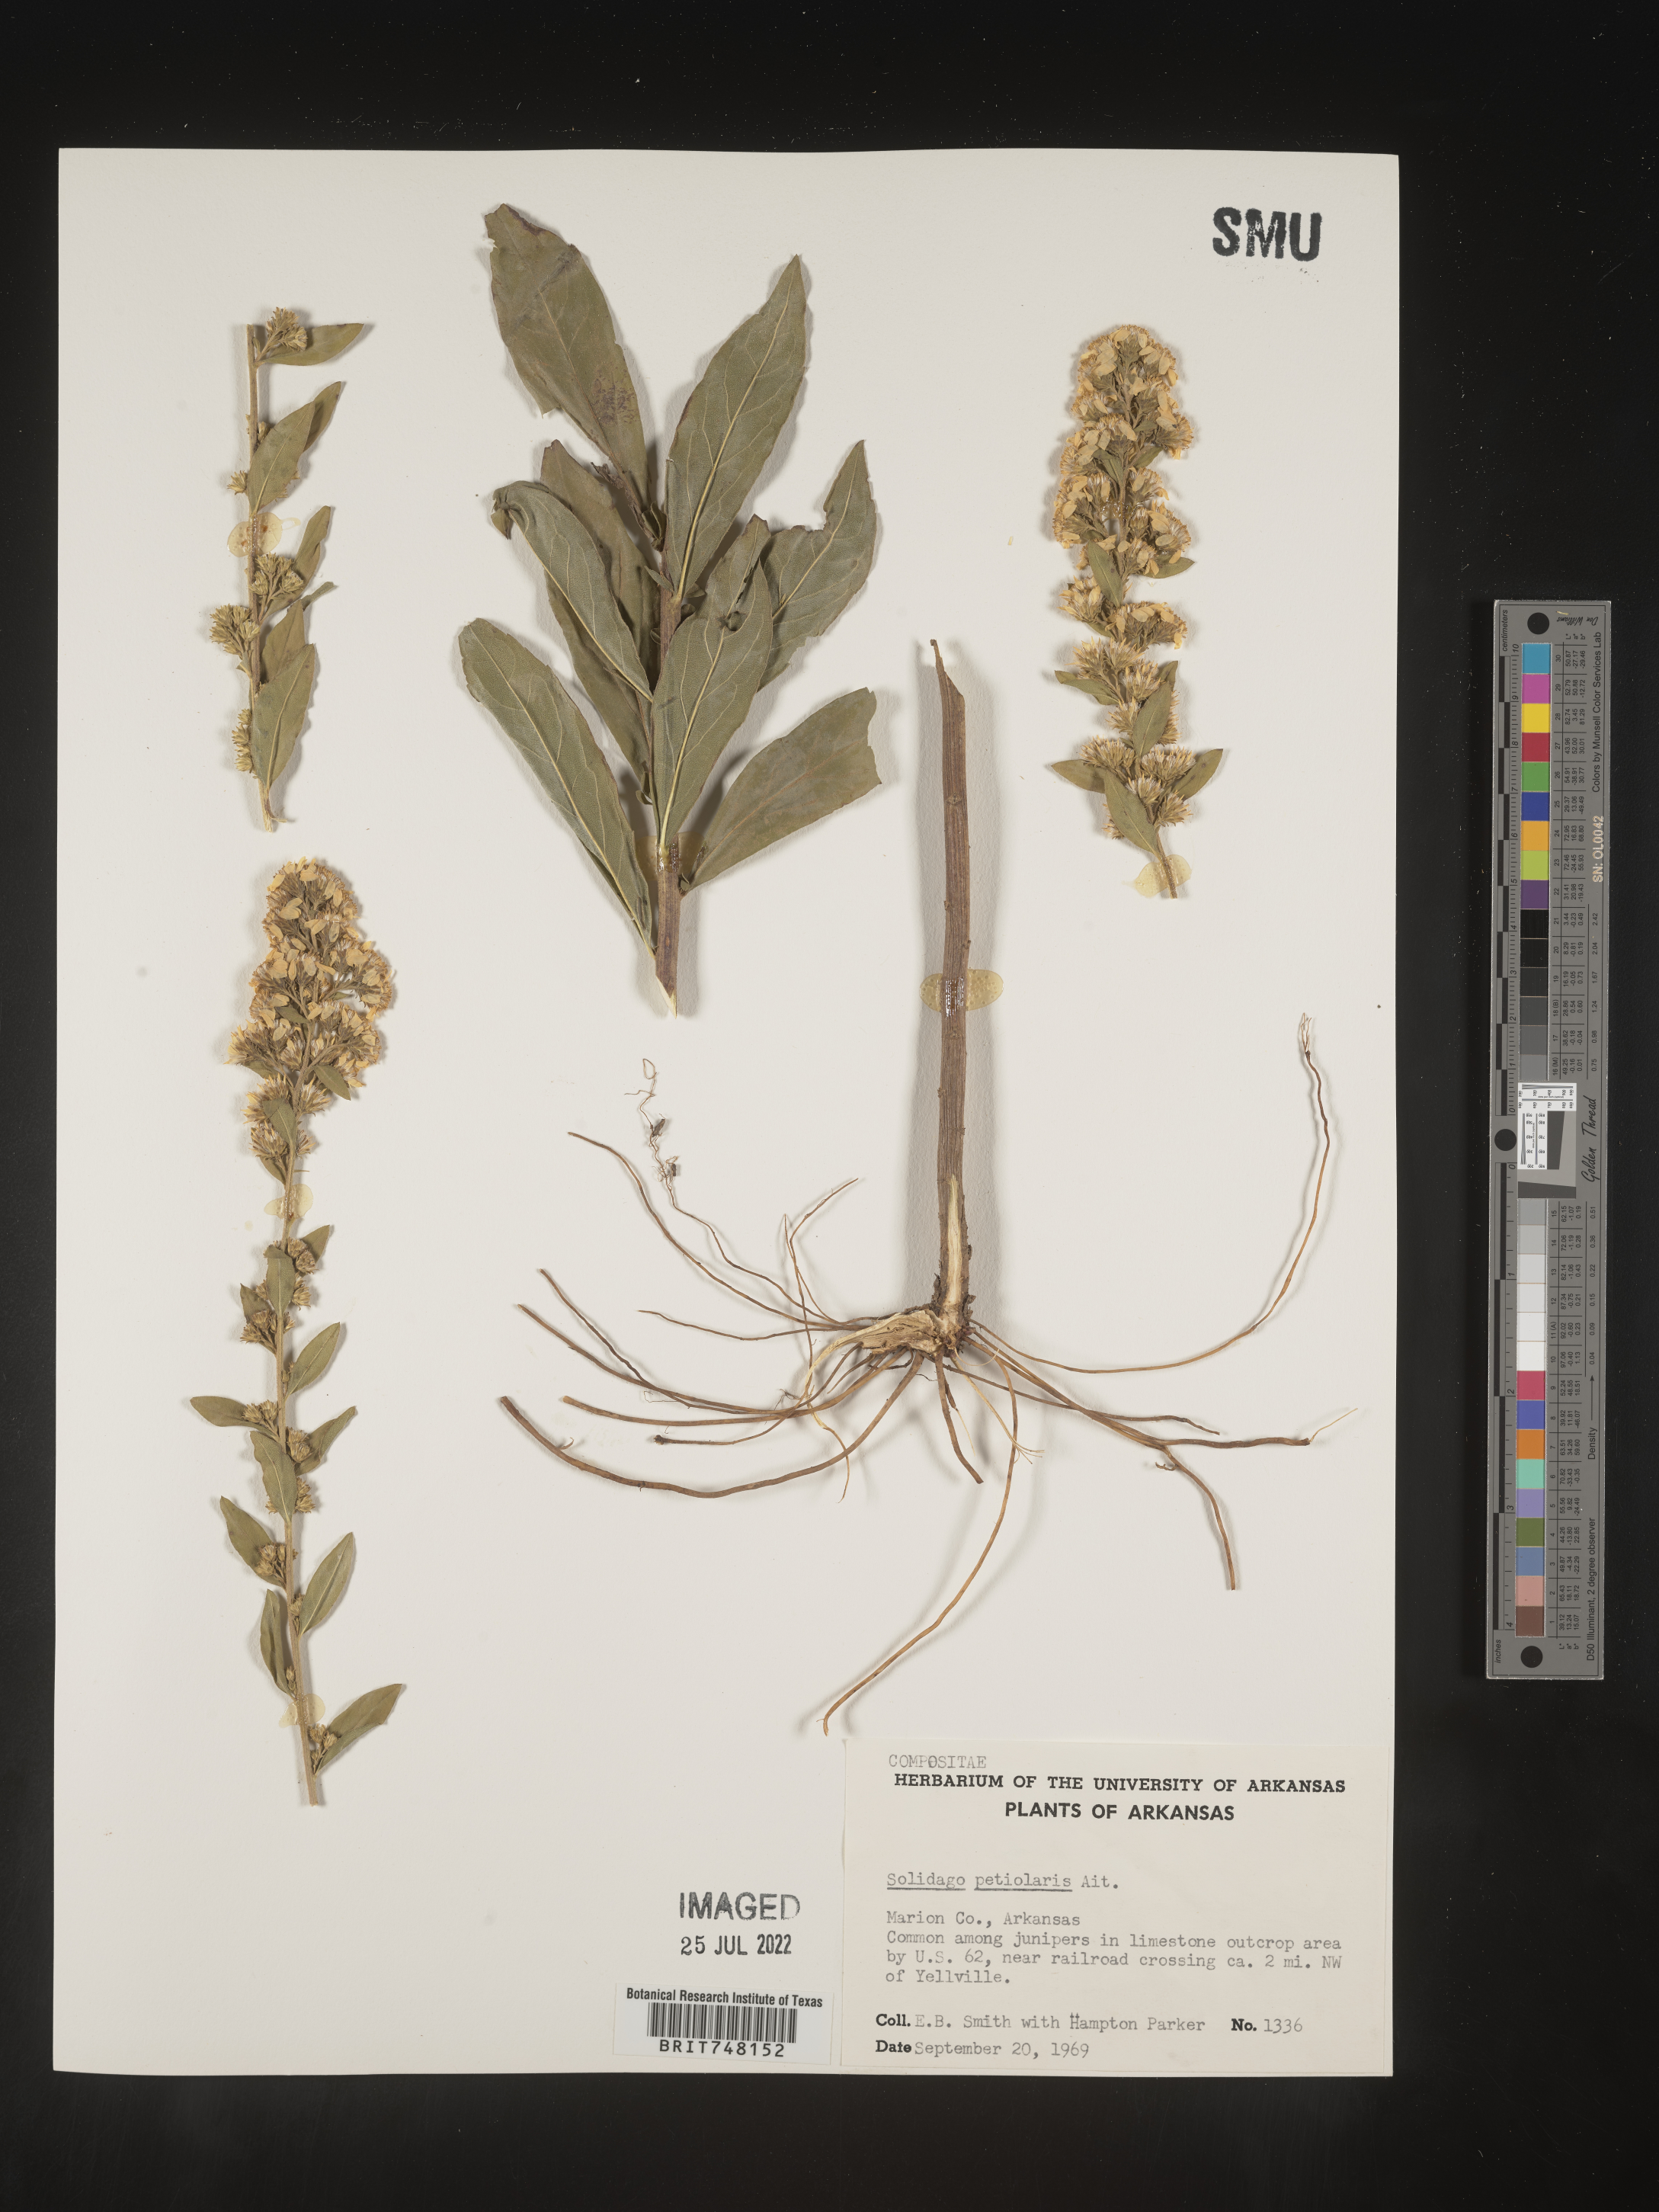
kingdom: Plantae
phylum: Tracheophyta
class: Magnoliopsida
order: Asterales
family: Asteraceae
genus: Solidago
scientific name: Solidago petiolaris
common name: Downy ragged goldenrod
